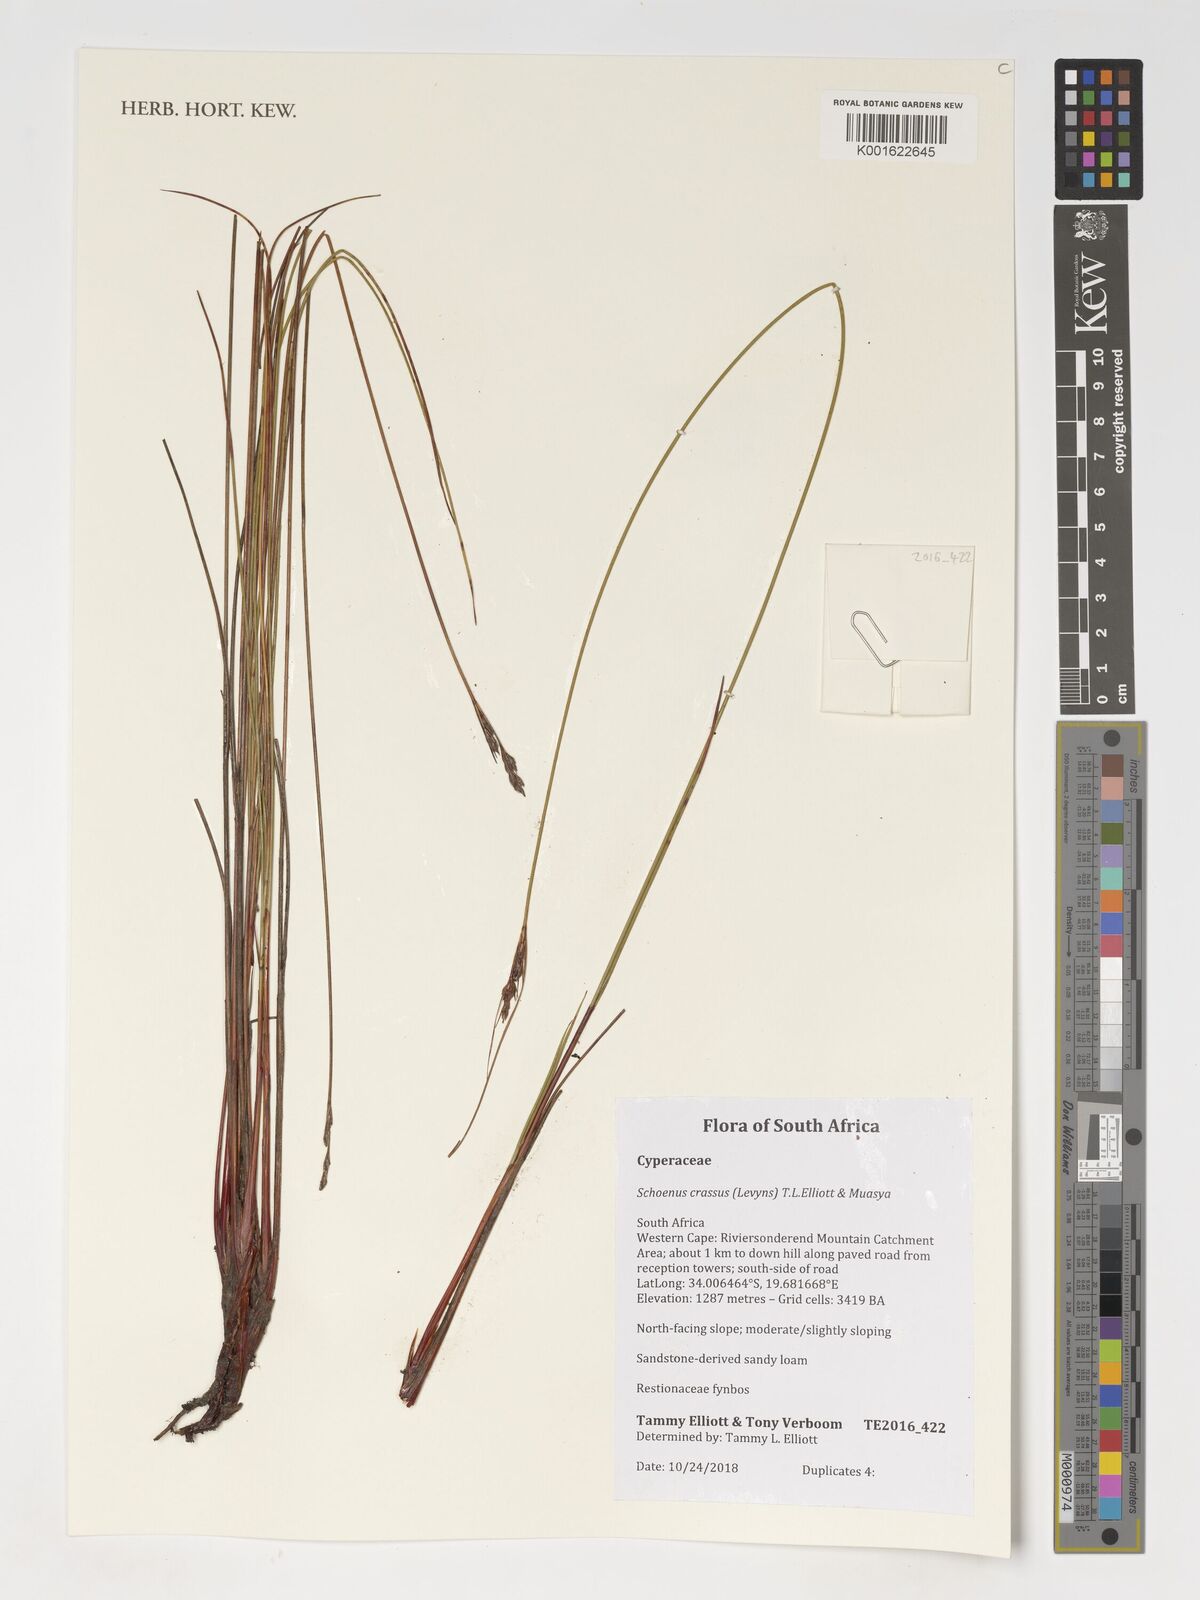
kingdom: Plantae
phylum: Tracheophyta
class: Liliopsida
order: Poales
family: Cyperaceae
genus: Schoenus
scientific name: Schoenus crassus
